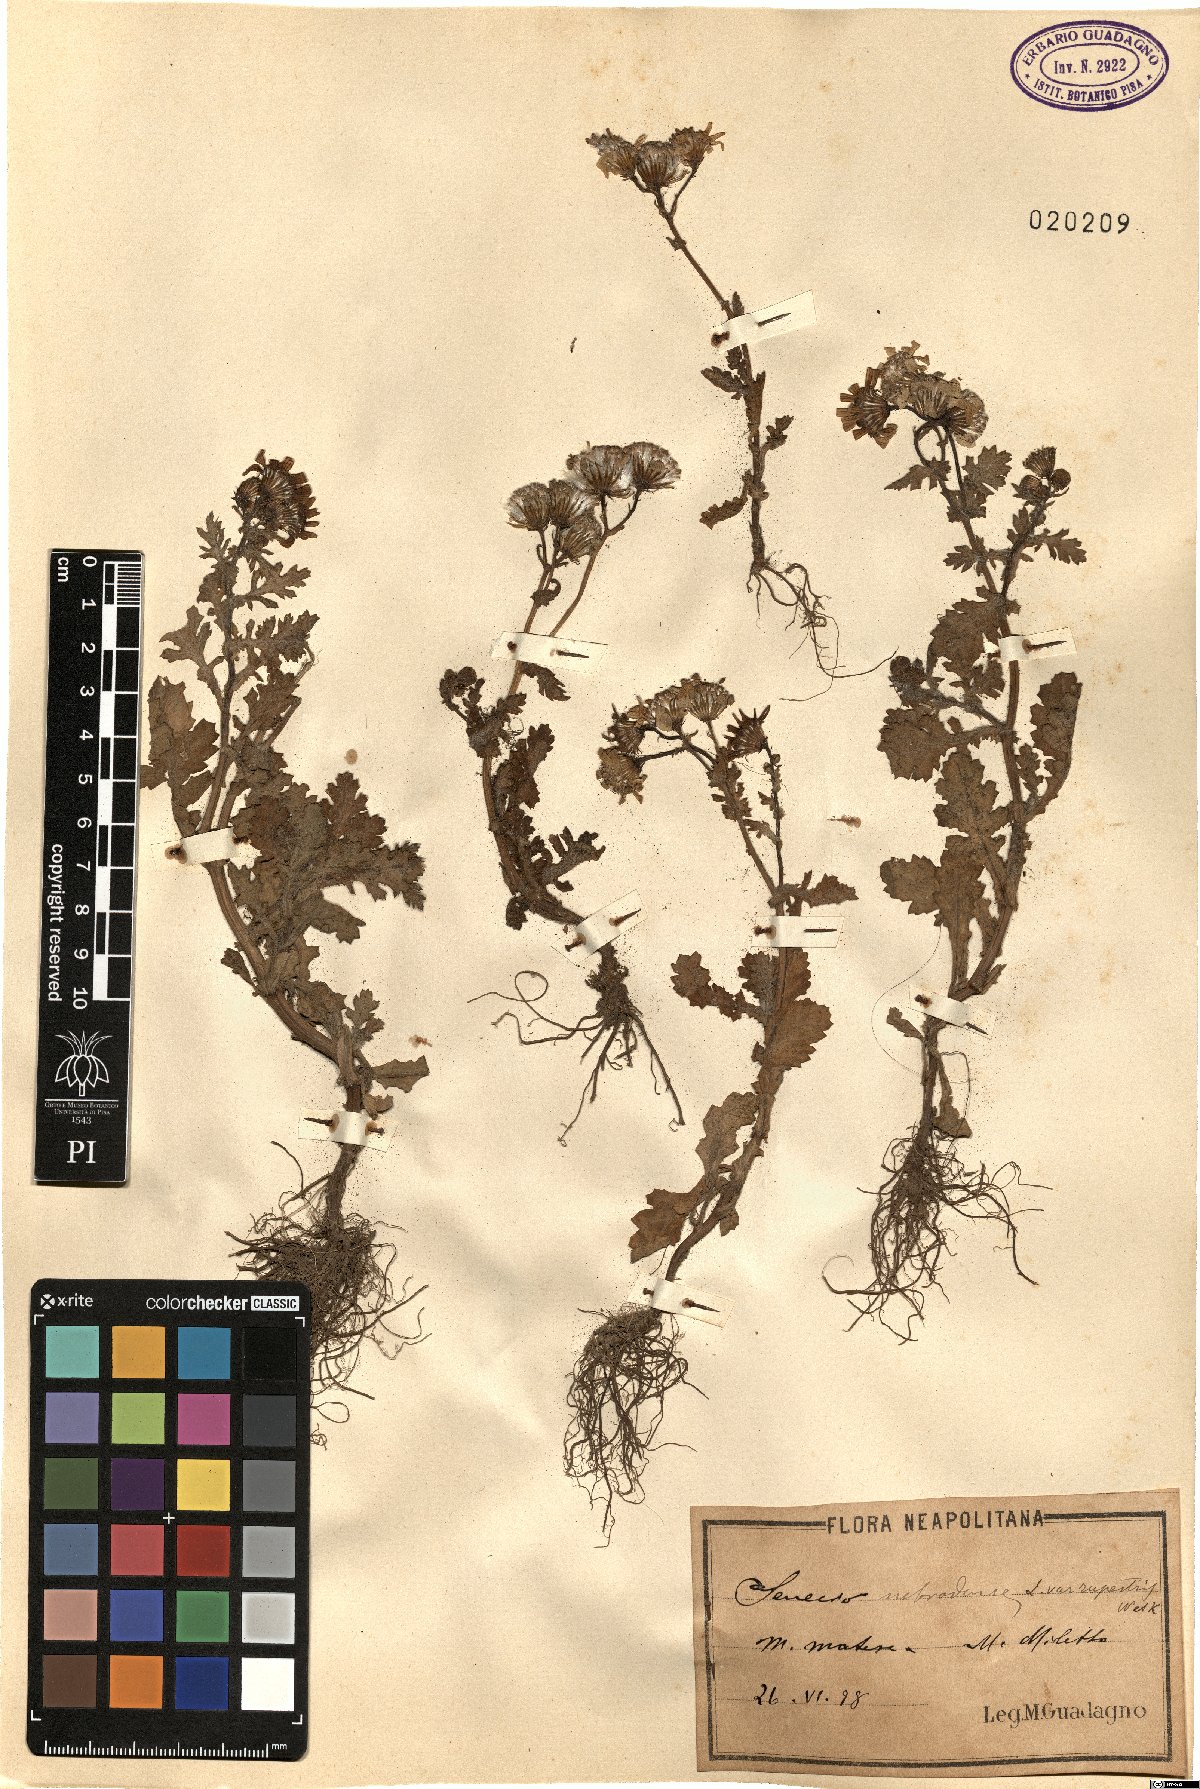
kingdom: Plantae
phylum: Tracheophyta
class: Magnoliopsida
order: Asterales
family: Asteraceae
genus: Senecio
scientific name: Senecio rupestris
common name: Rock ragwort
